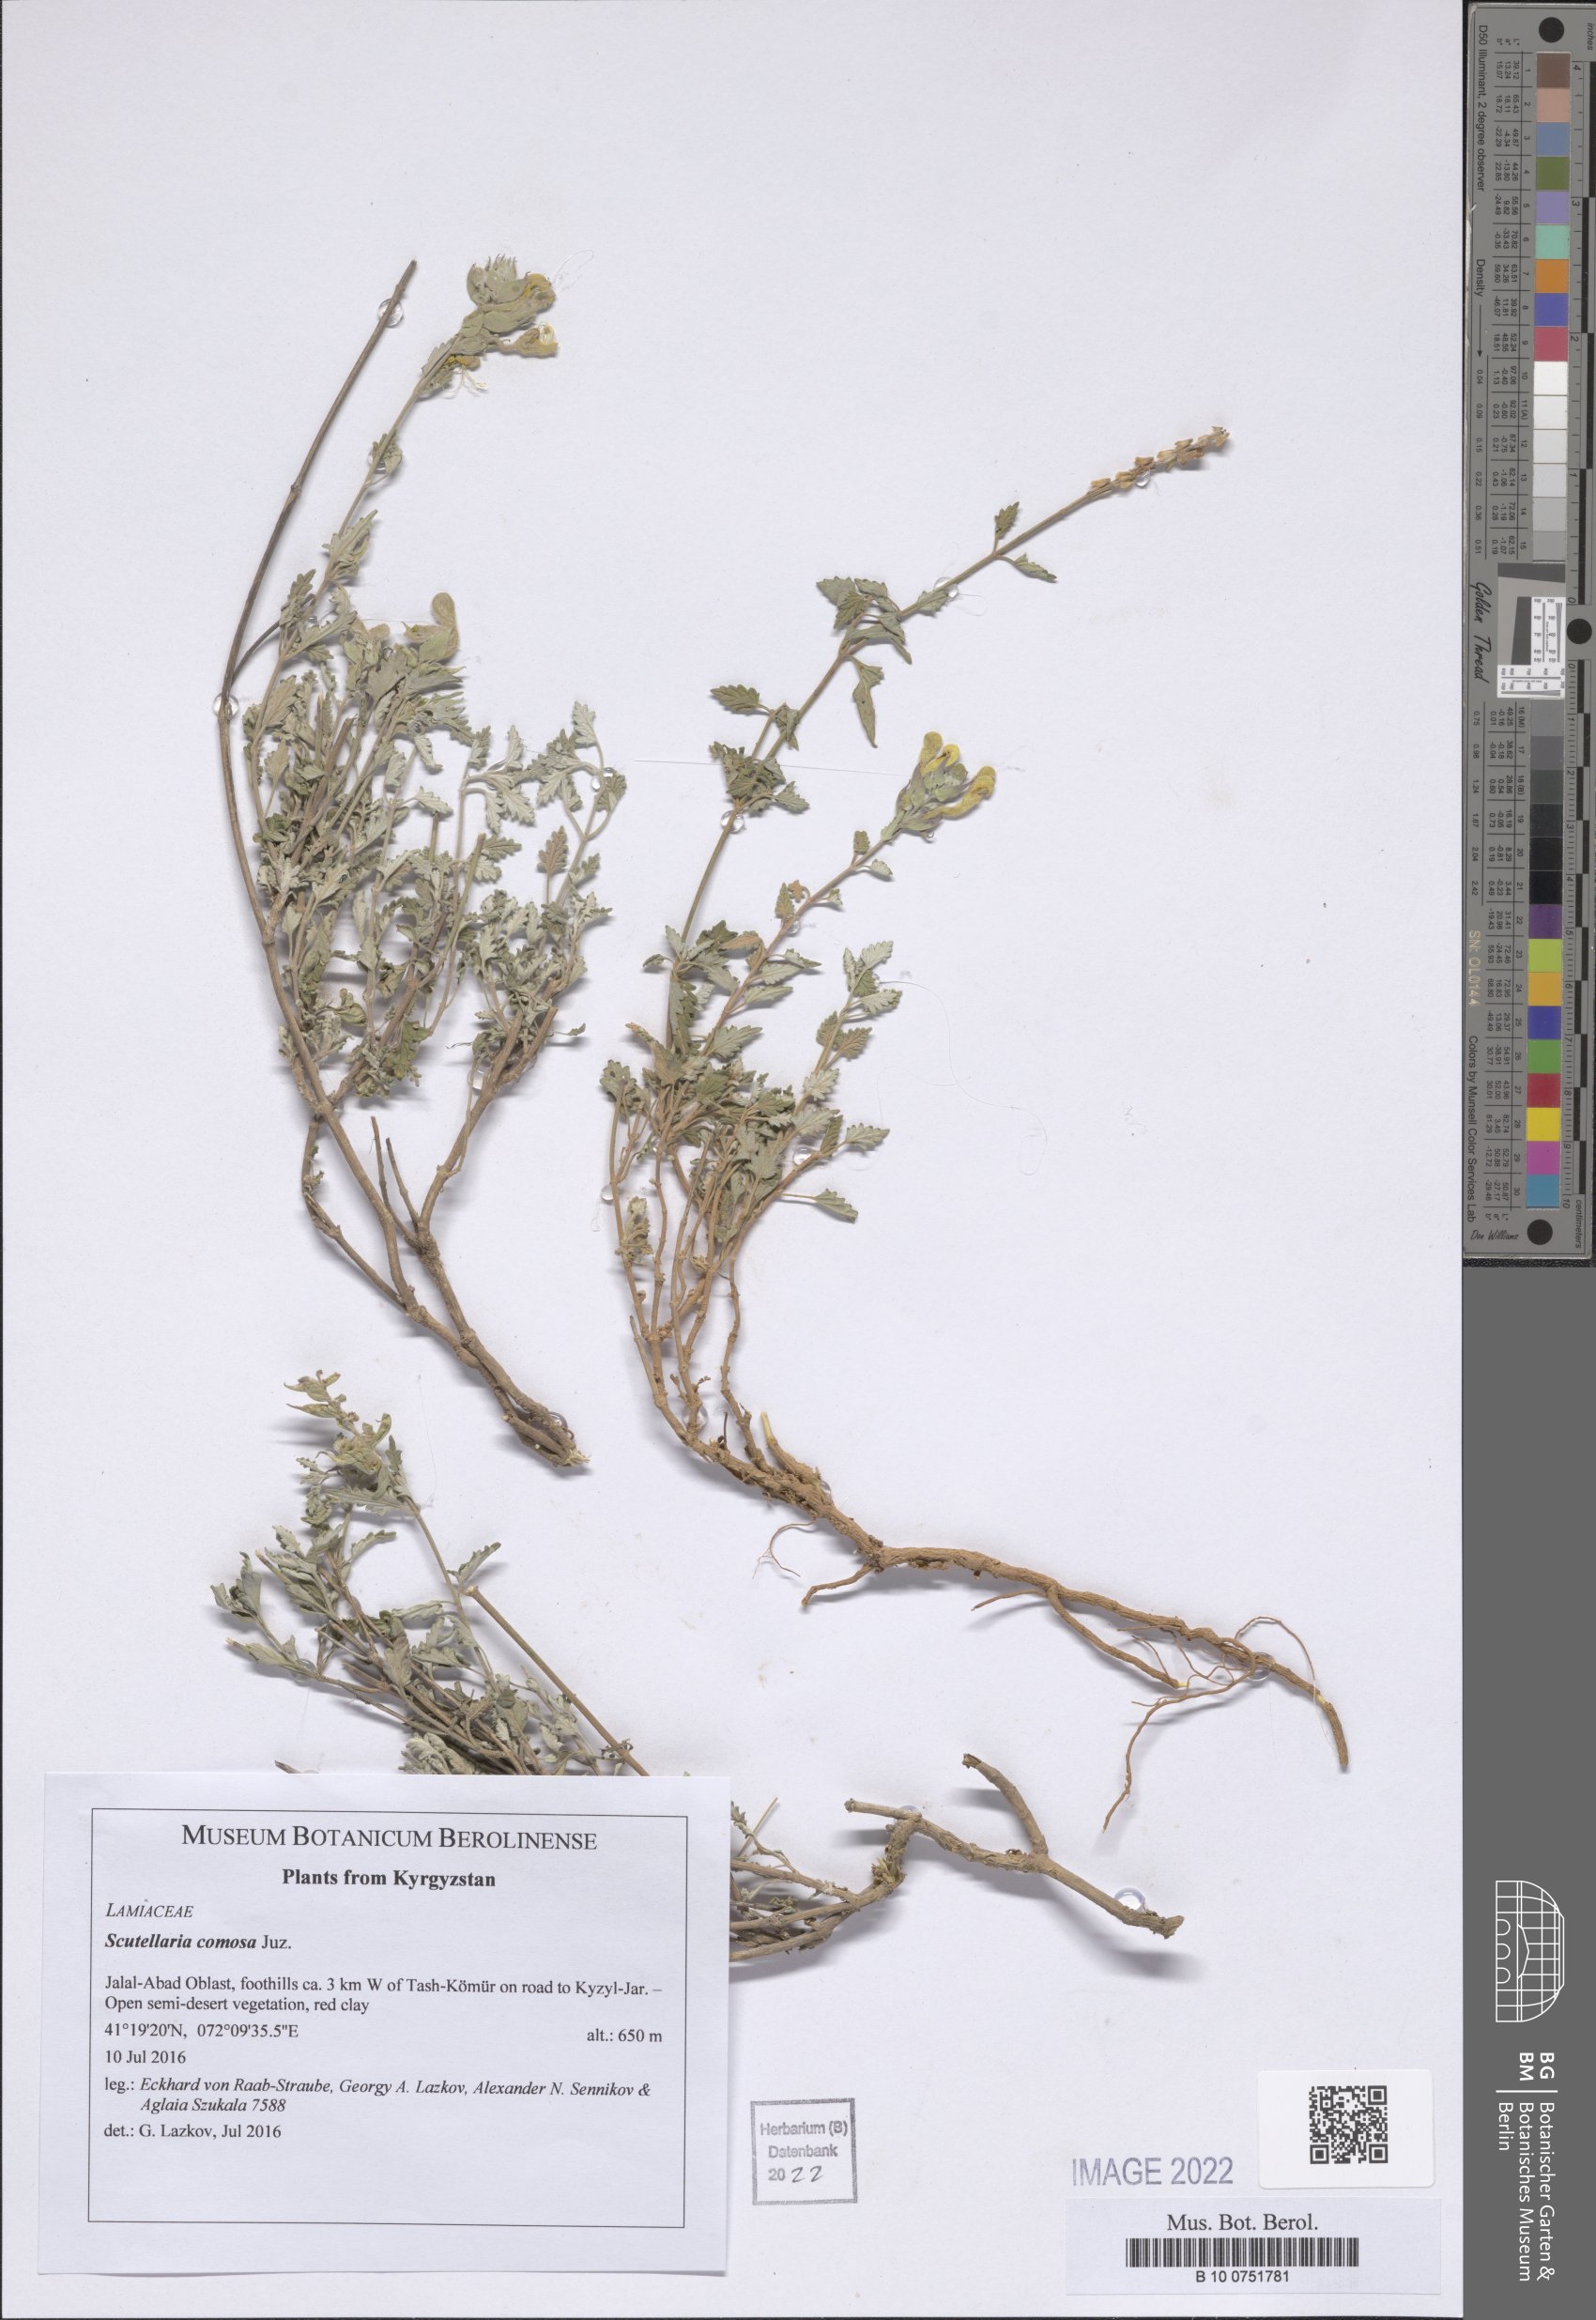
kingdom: Plantae
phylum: Tracheophyta
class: Magnoliopsida
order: Lamiales
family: Lamiaceae
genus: Scutellaria
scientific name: Scutellaria comosa
